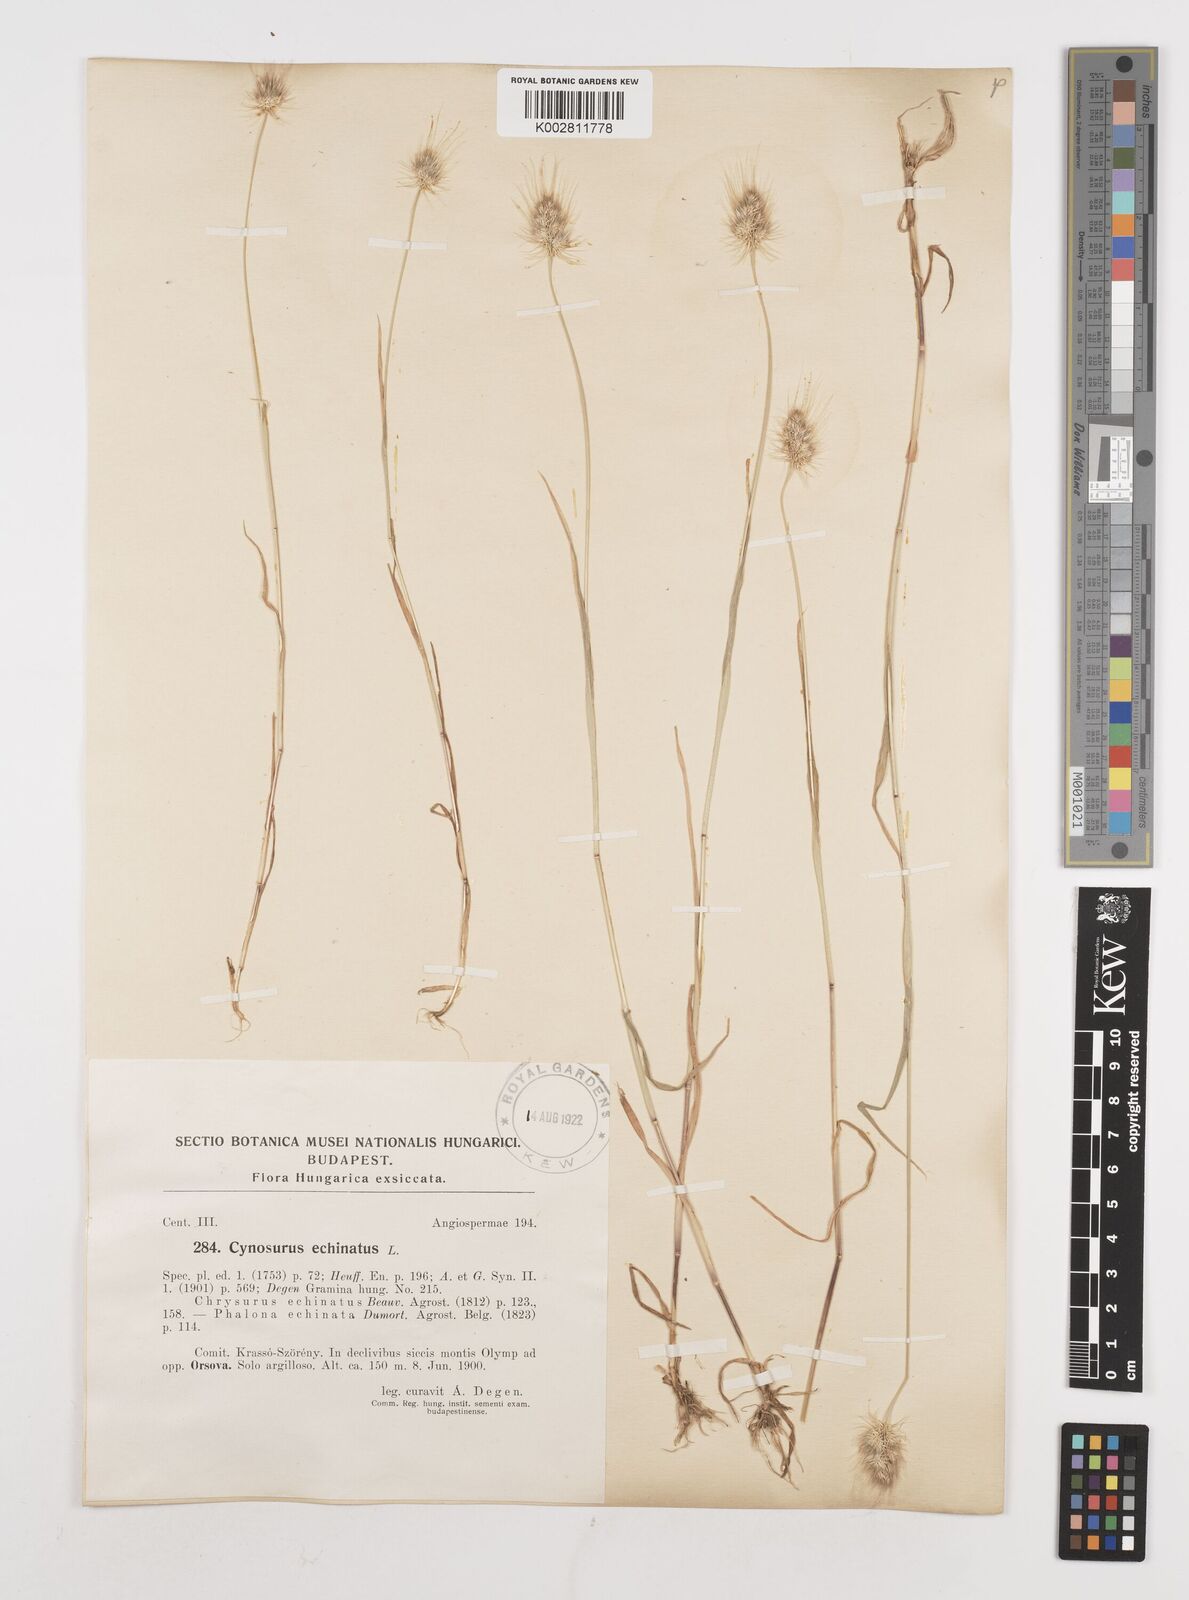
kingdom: Plantae
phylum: Tracheophyta
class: Liliopsida
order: Poales
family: Poaceae
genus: Cynosurus
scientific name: Cynosurus echinatus
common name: Rough dog's-tail
